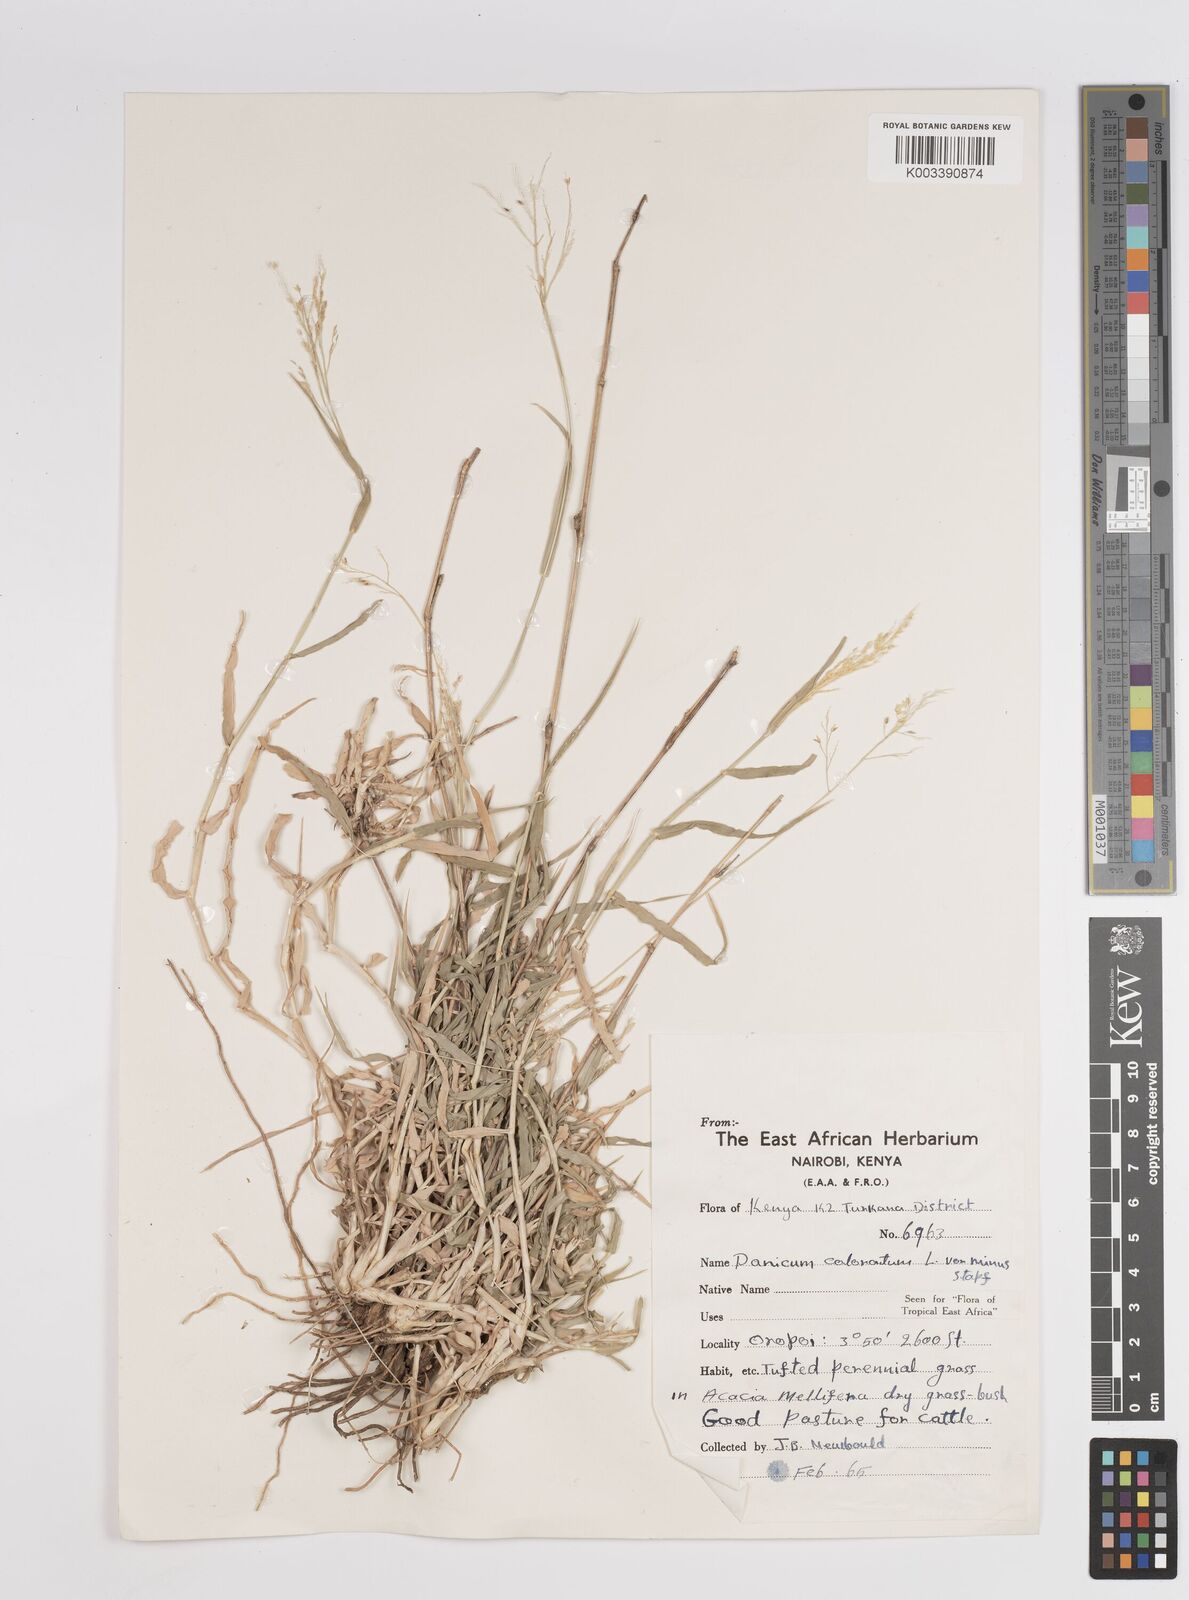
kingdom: Plantae
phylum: Tracheophyta
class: Liliopsida
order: Poales
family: Poaceae
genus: Panicum
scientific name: Panicum coloratum
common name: Kleingrass
